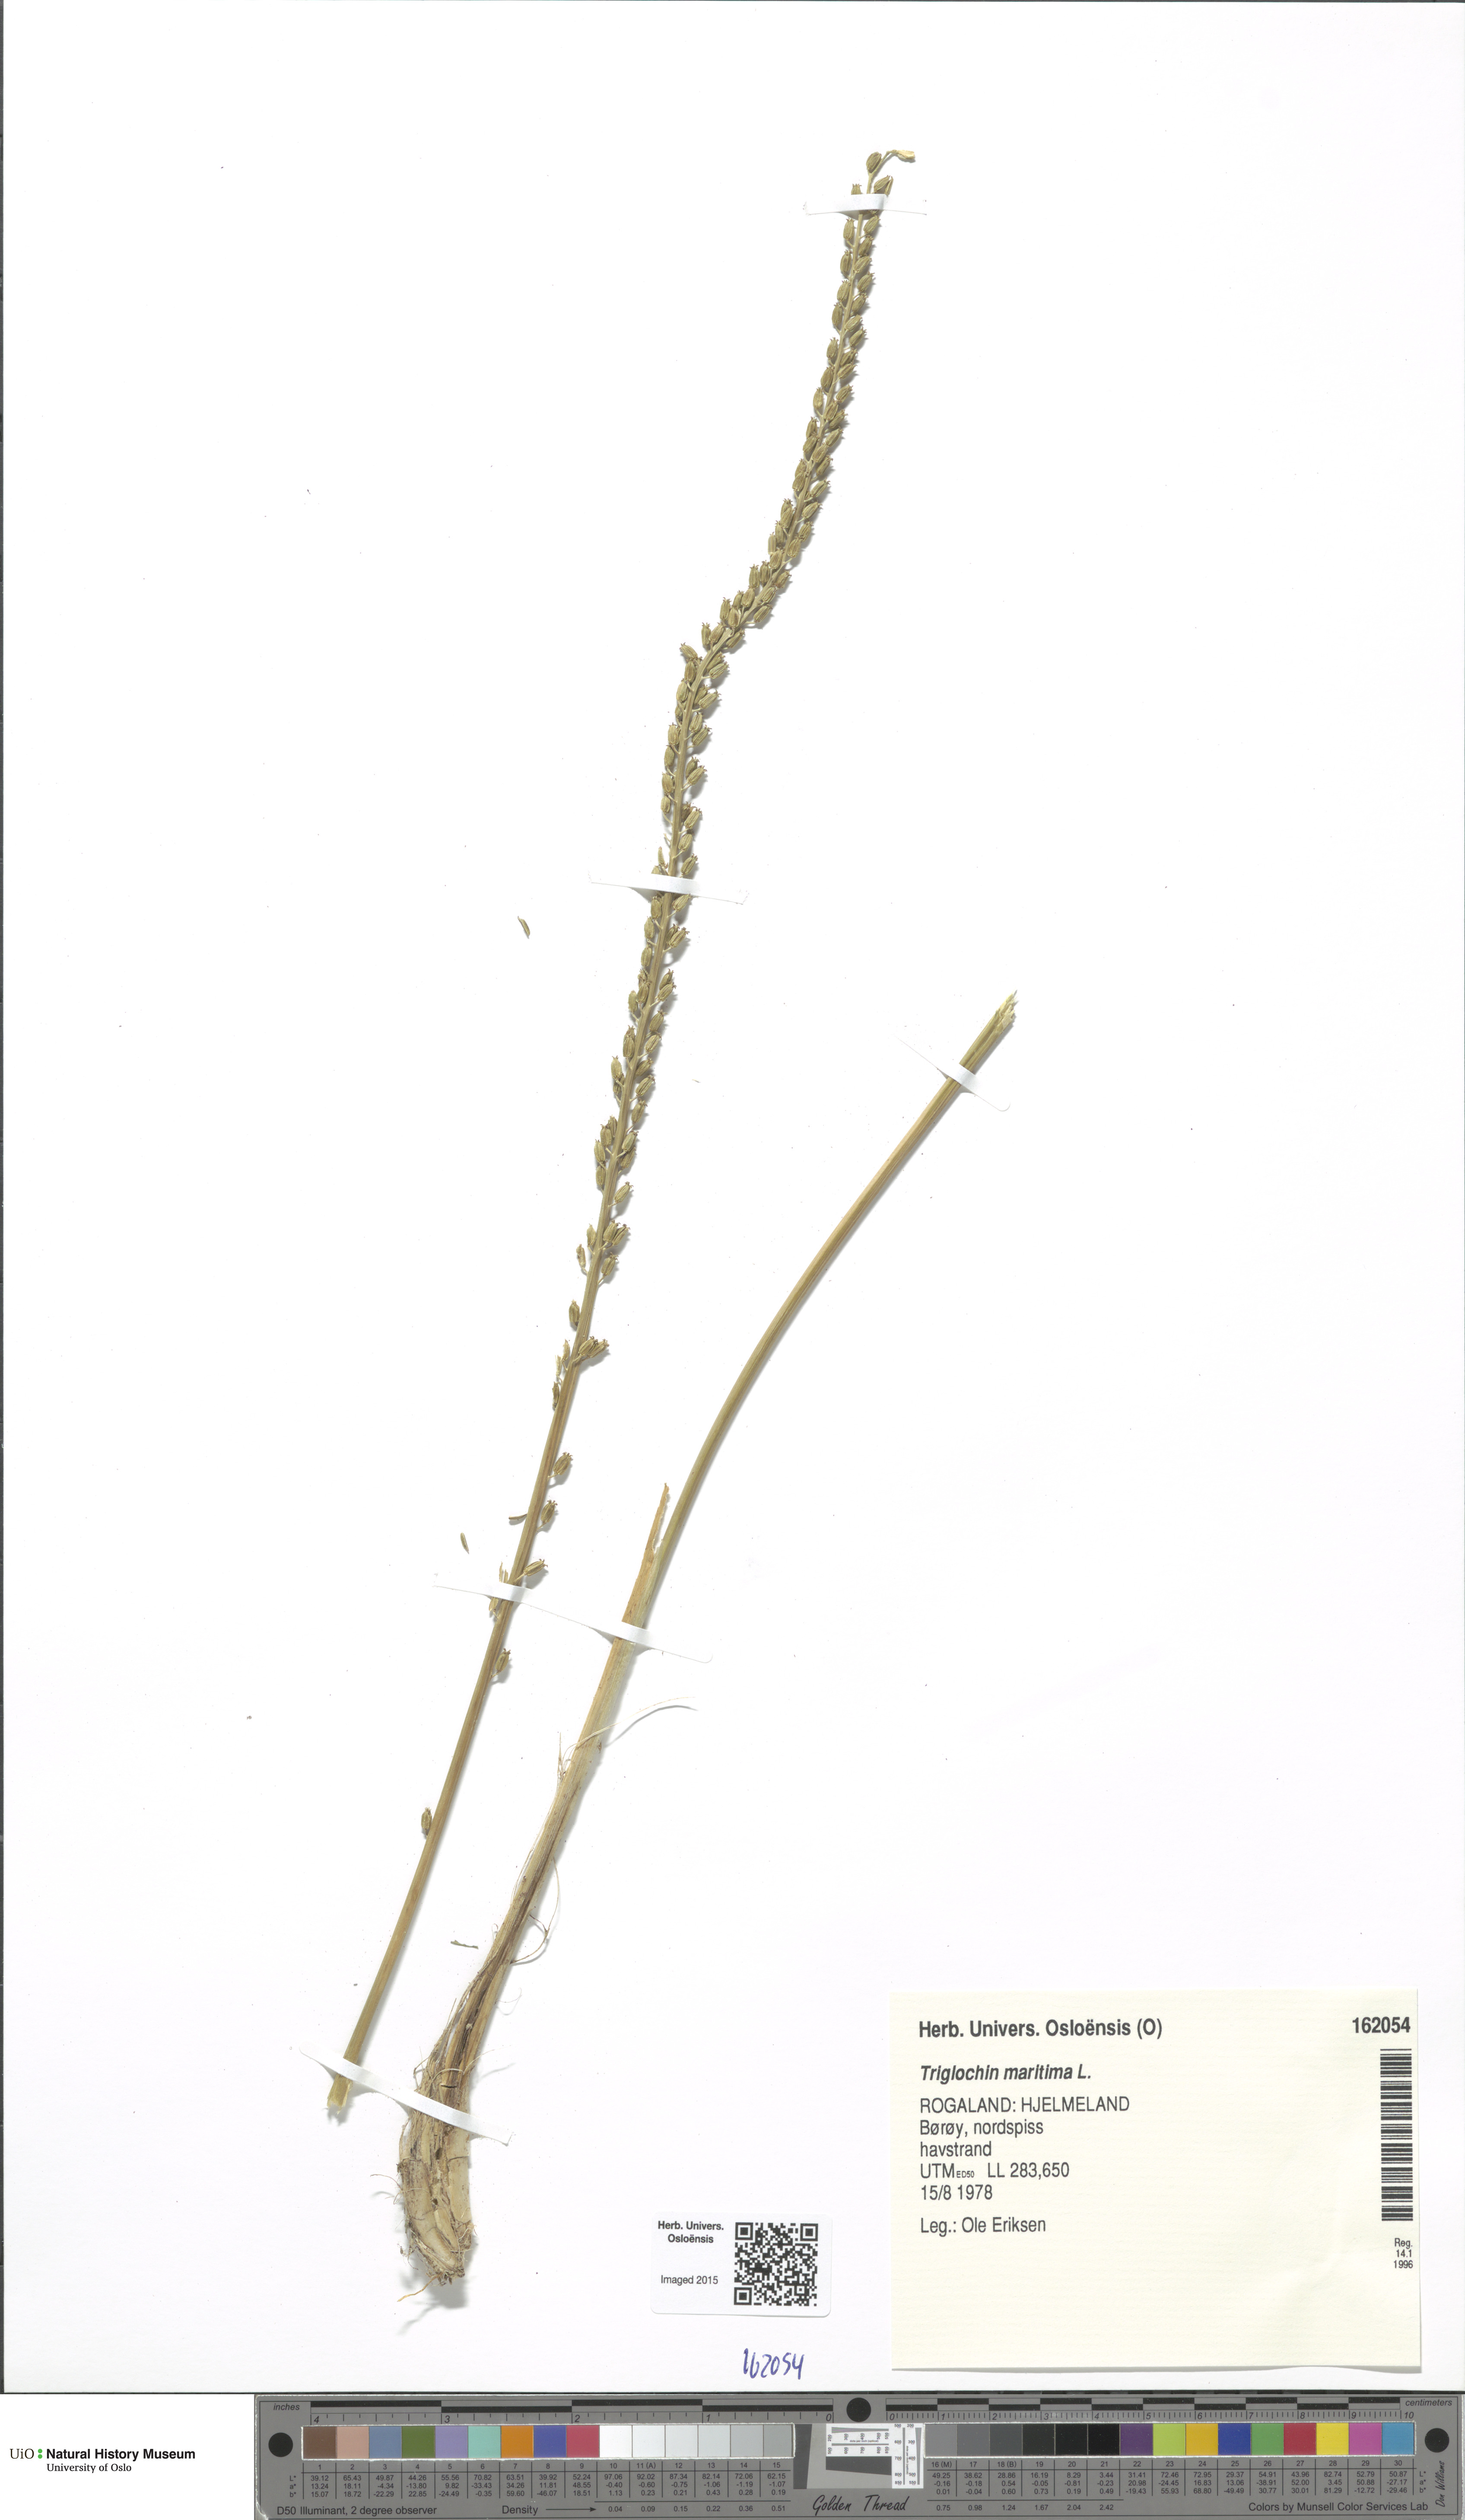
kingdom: Plantae
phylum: Tracheophyta
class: Liliopsida
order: Alismatales
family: Juncaginaceae
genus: Triglochin
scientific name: Triglochin maritima
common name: Sea arrowgrass
